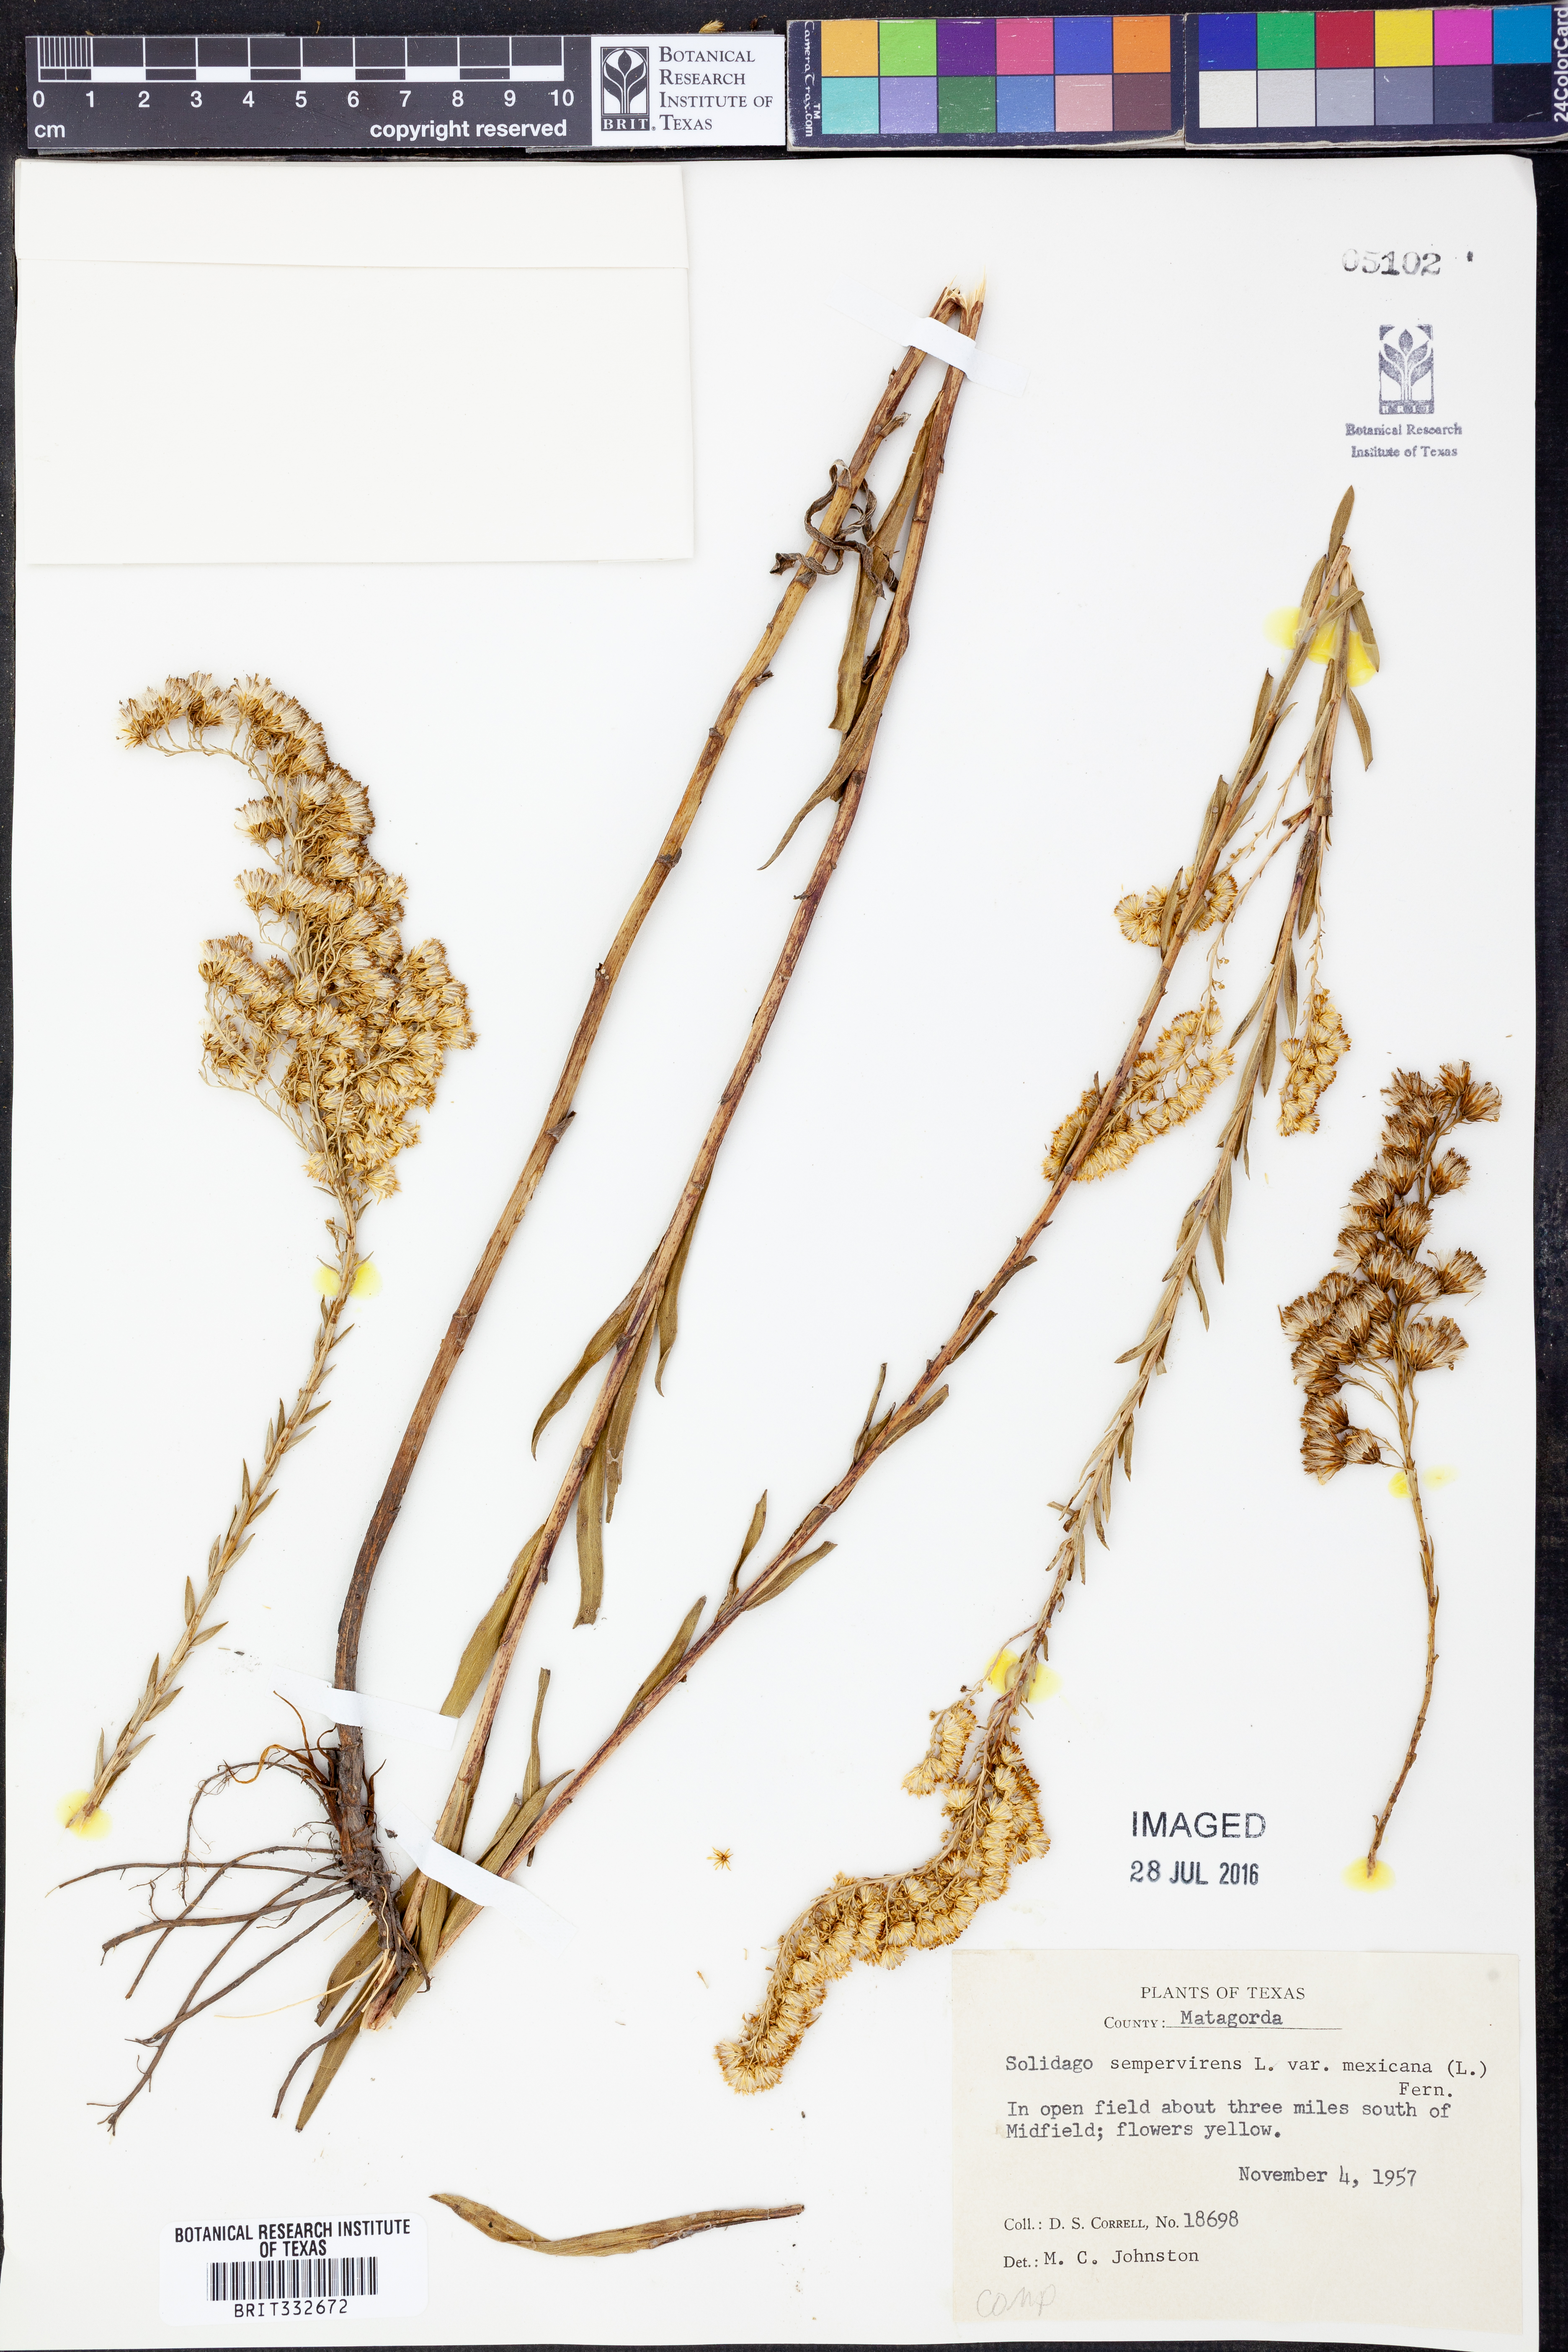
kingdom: Plantae
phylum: Tracheophyta
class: Magnoliopsida
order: Asterales
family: Asteraceae
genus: Solidago
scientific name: Solidago mexicana
